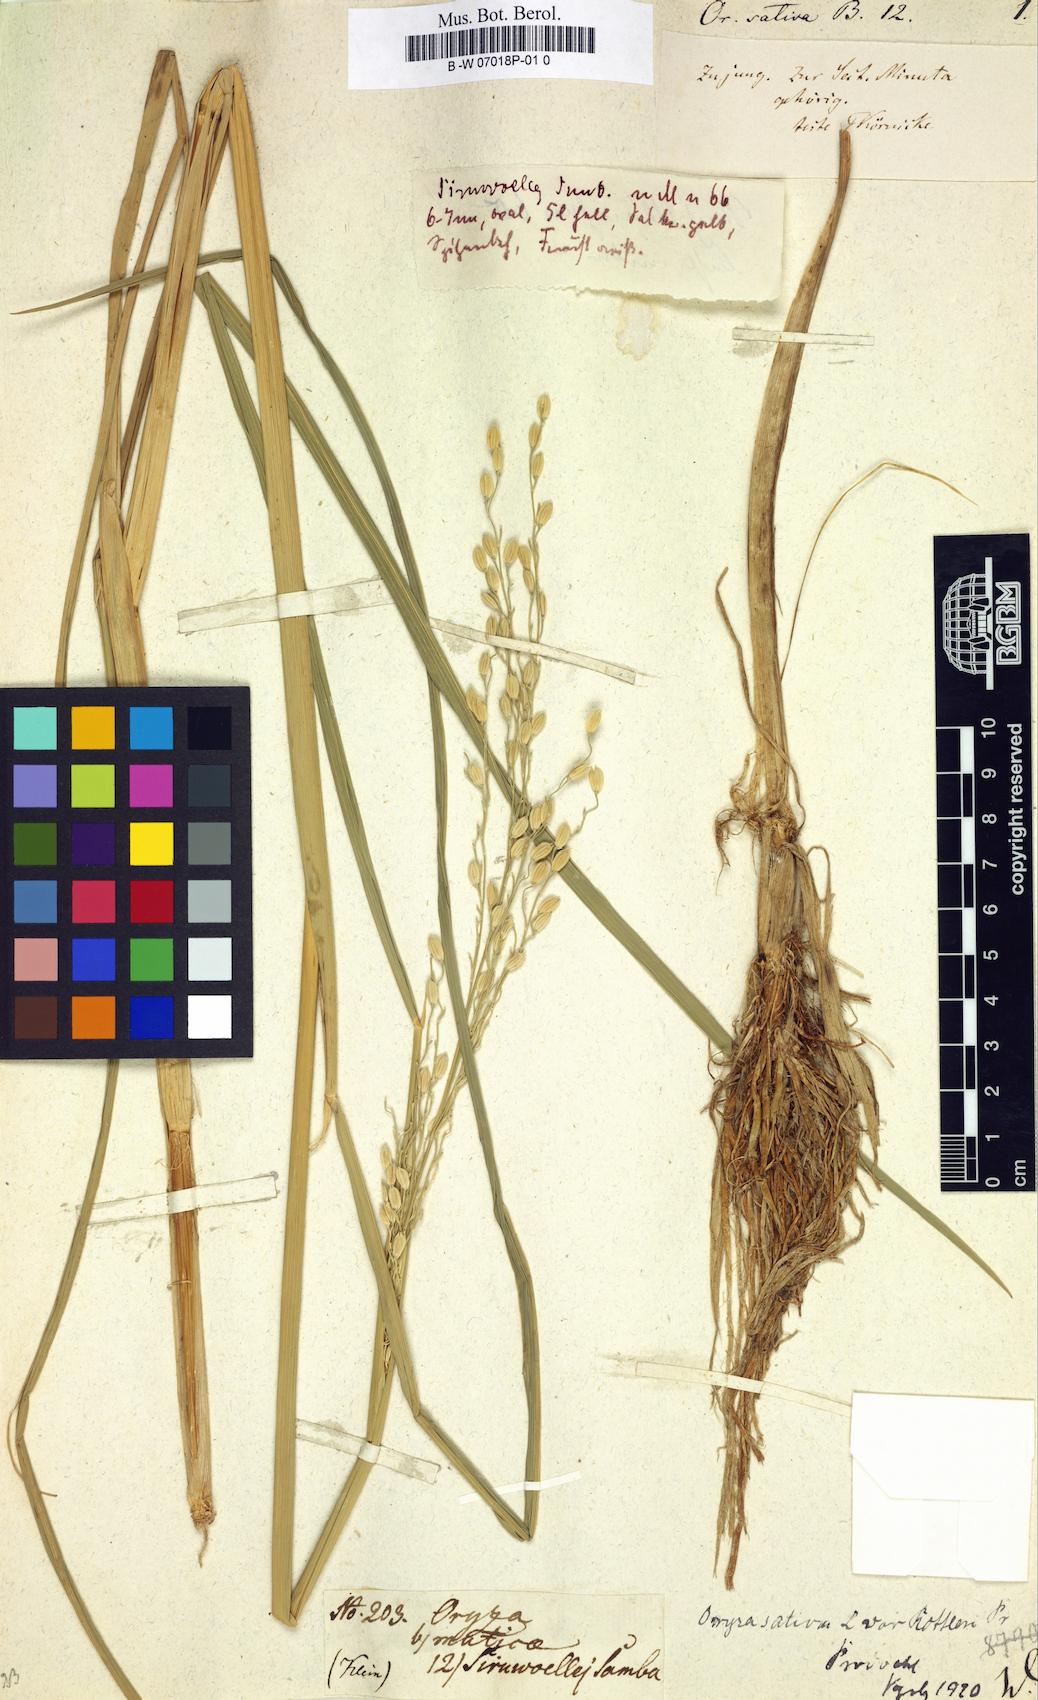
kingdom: Plantae
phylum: Tracheophyta
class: Liliopsida
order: Poales
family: Poaceae
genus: Oryza
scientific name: Oryza sativa
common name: Rice
